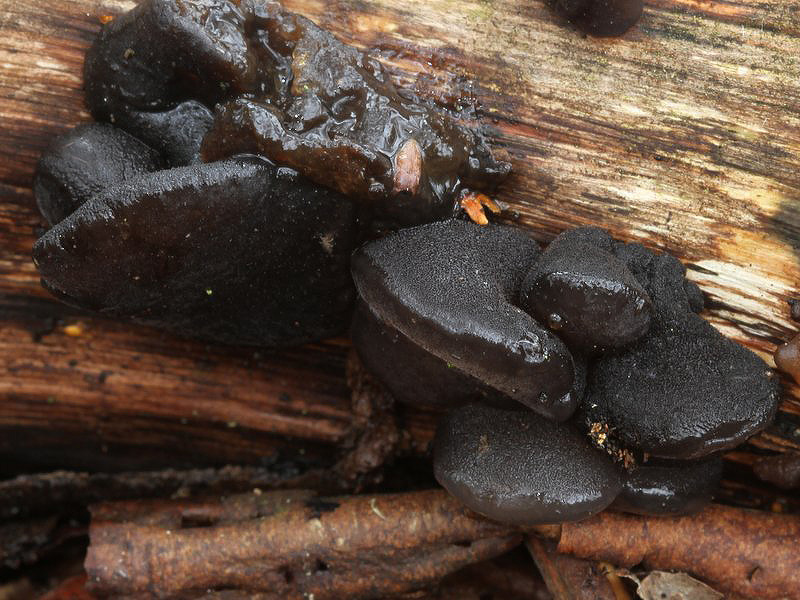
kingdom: Fungi
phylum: Basidiomycota
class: Agaricomycetes
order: Auriculariales
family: Auriculariaceae
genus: Exidia
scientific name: Exidia glandulosa
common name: ege-bævretop
